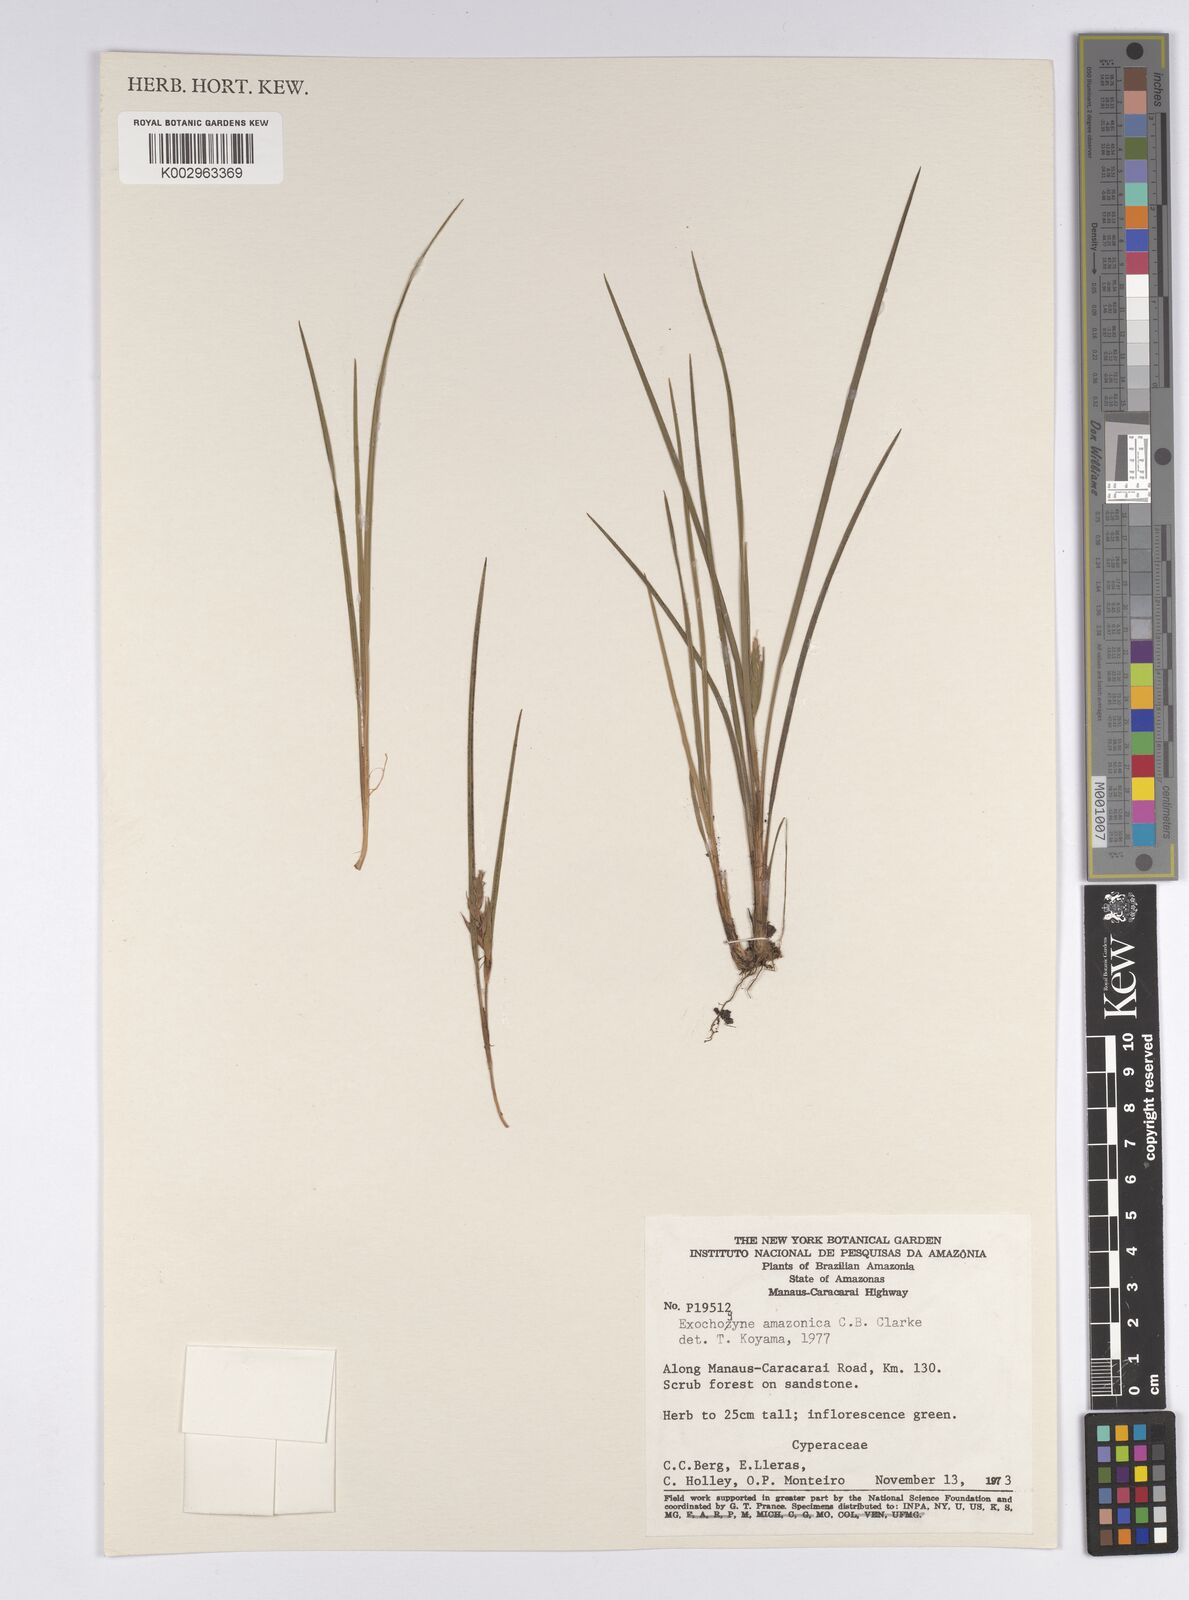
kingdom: Plantae
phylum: Tracheophyta
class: Liliopsida
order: Poales
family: Cyperaceae
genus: Exochogyne
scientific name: Exochogyne amazonica
